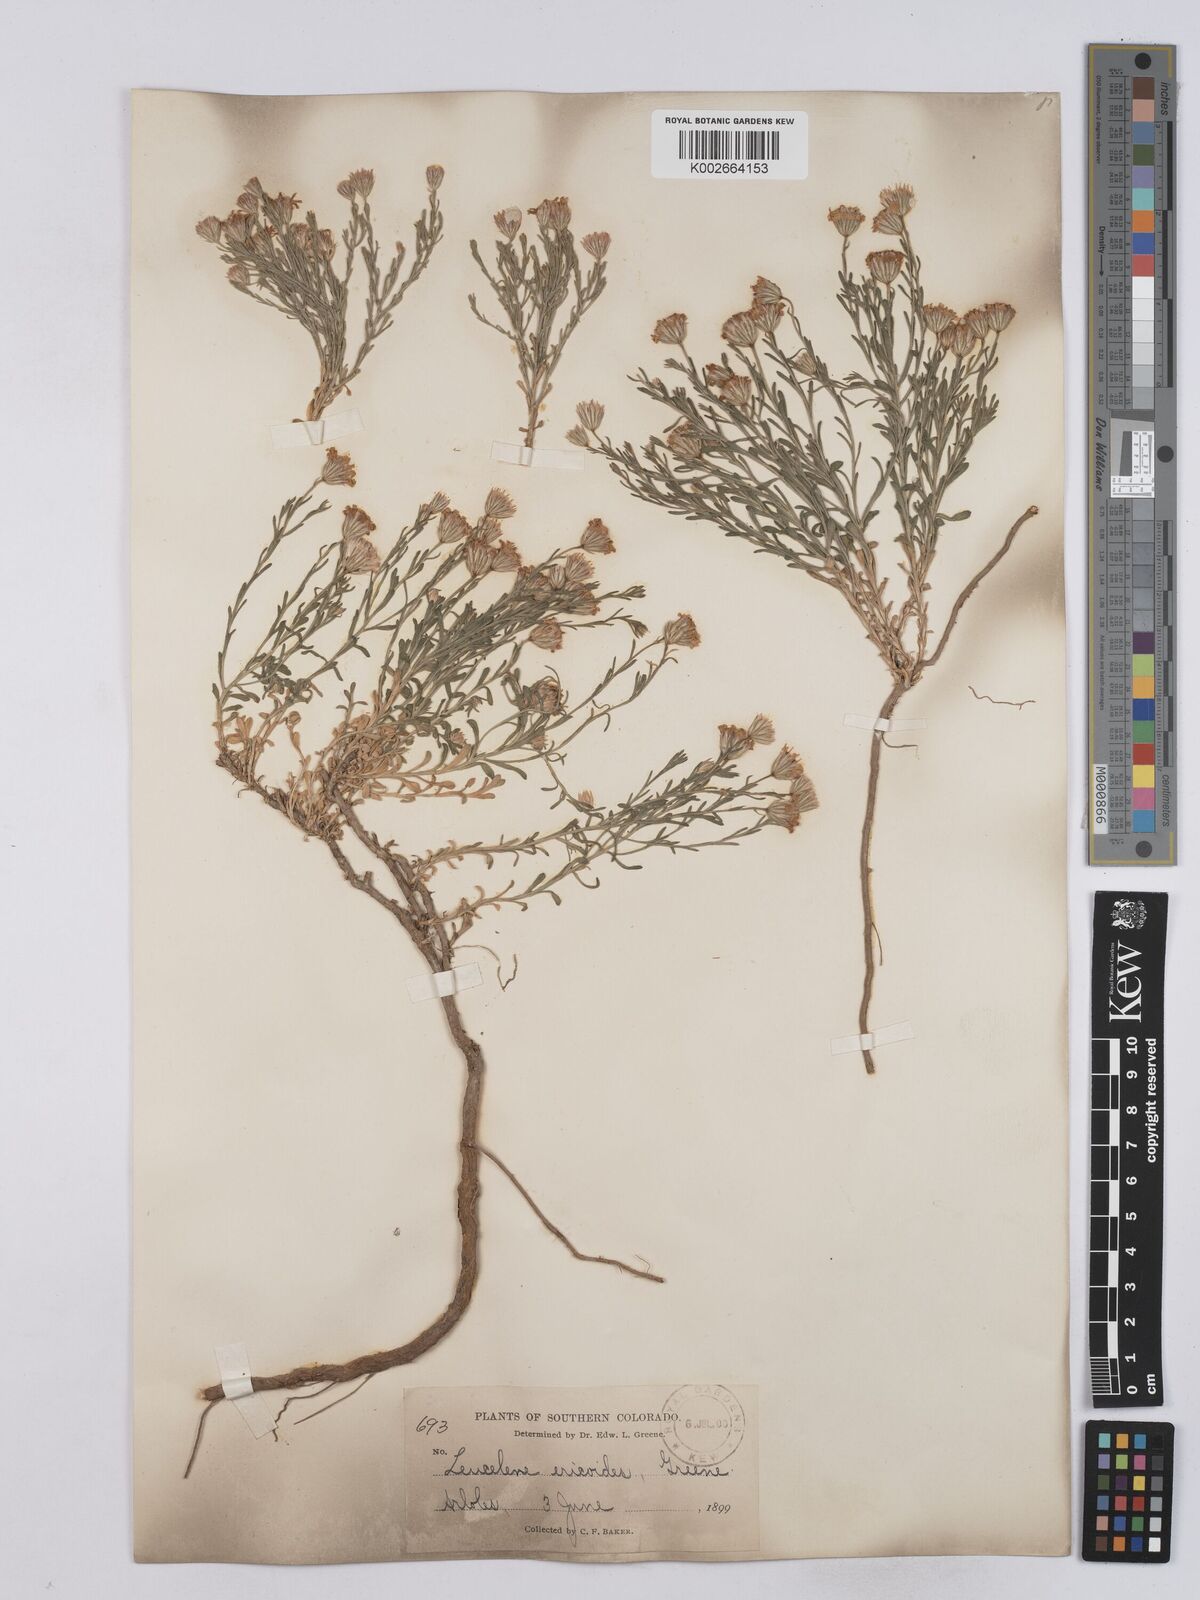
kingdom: Plantae
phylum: Tracheophyta
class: Magnoliopsida
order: Asterales
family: Asteraceae
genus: Chaetopappa
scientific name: Chaetopappa ericoides
